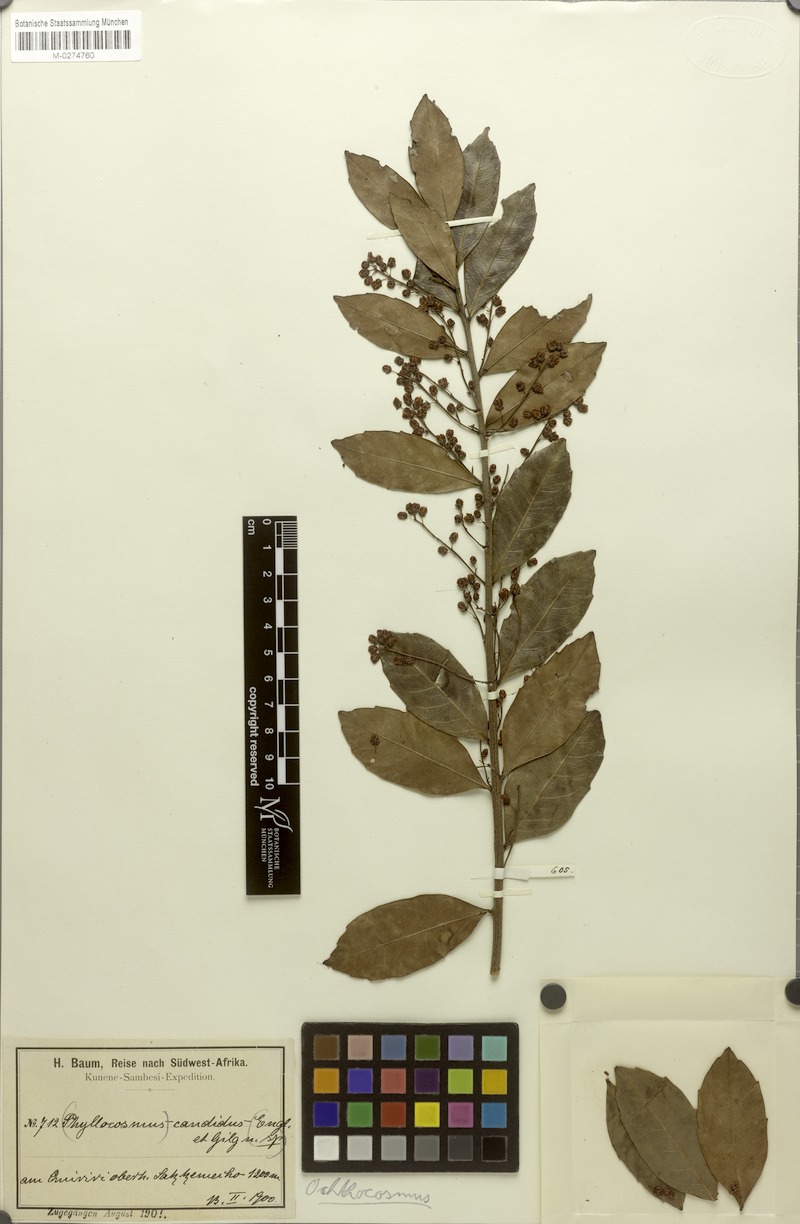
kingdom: Plantae
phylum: Tracheophyta
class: Magnoliopsida
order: Malpighiales
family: Ixonanthaceae
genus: Phyllocosmus
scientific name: Phyllocosmus lemaireanus
